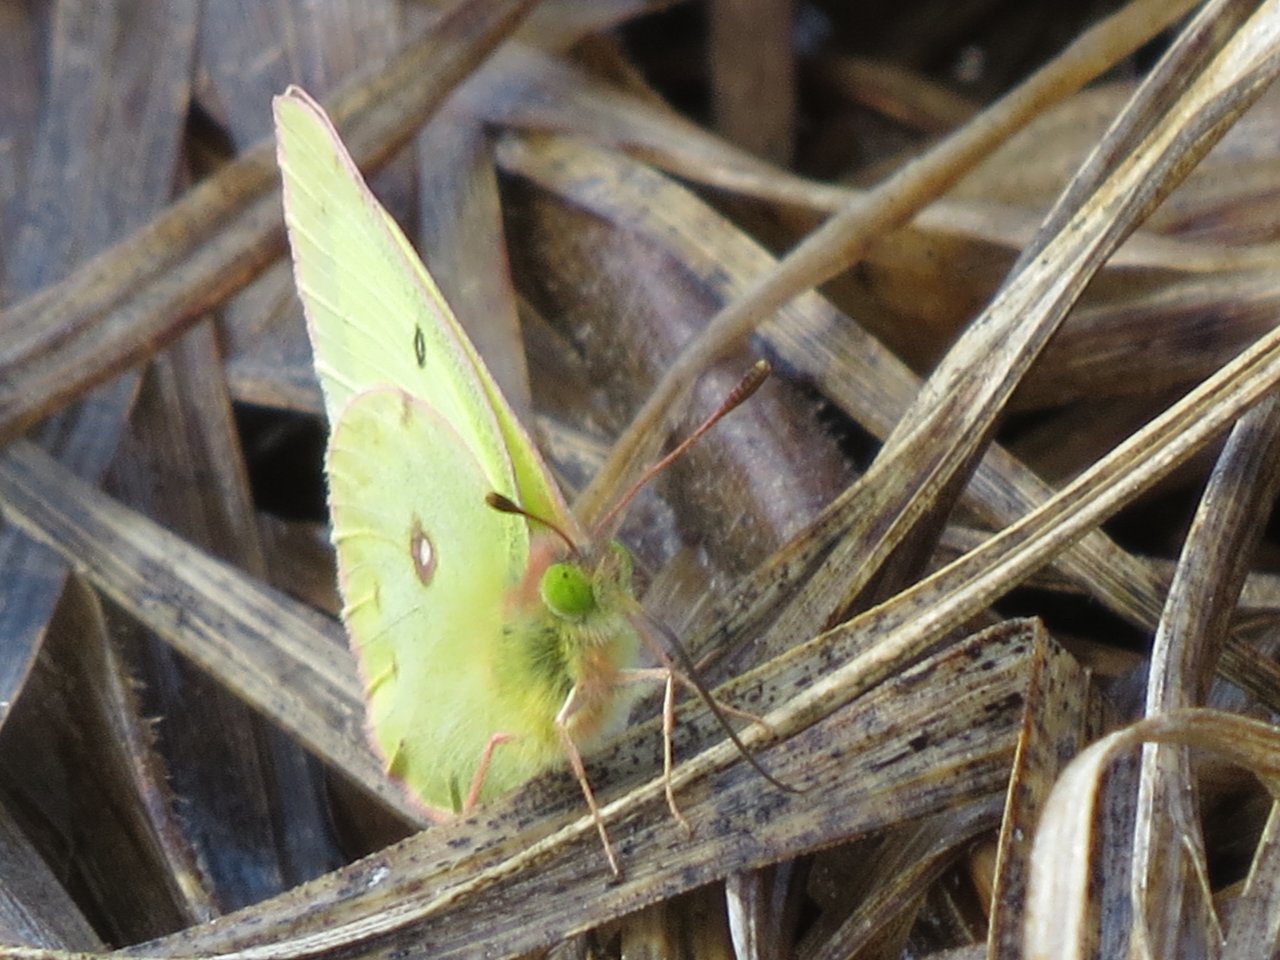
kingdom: Animalia
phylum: Arthropoda
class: Insecta
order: Lepidoptera
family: Pieridae
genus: Colias
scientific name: Colias philodice
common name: Clouded Sulphur
